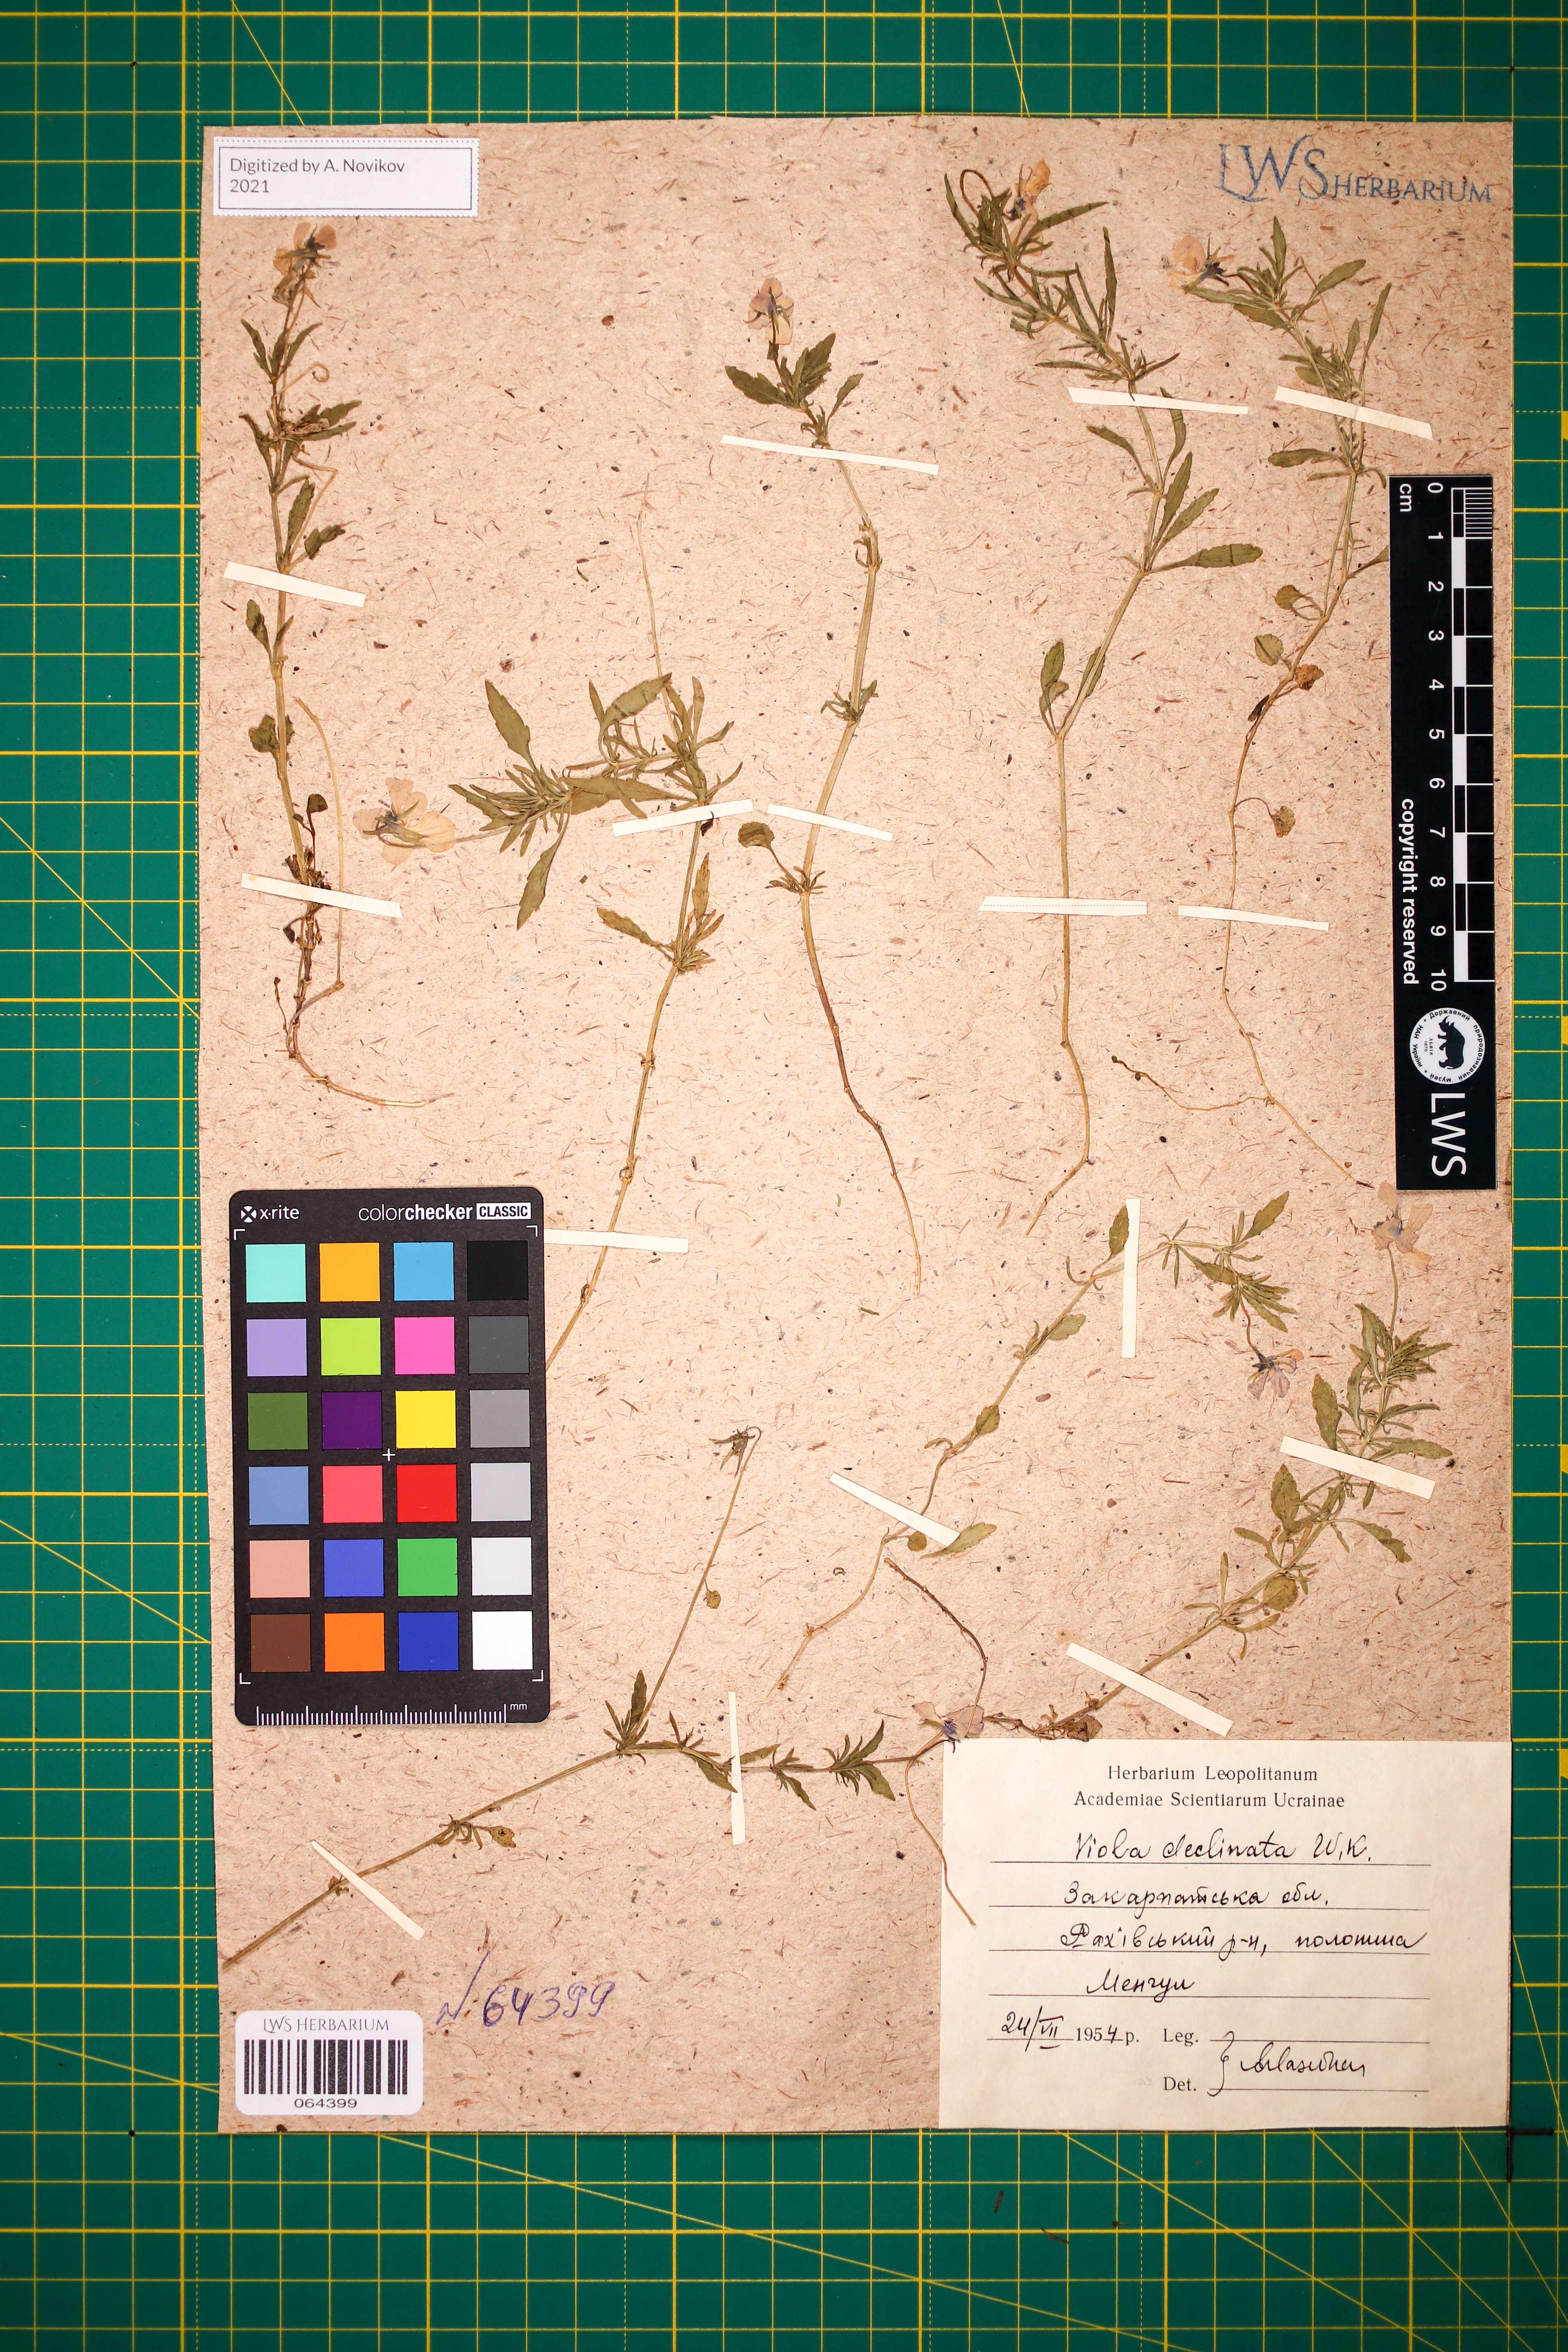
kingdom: Plantae
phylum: Tracheophyta
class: Magnoliopsida
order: Malpighiales
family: Violaceae
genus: Viola
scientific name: Viola declinata
